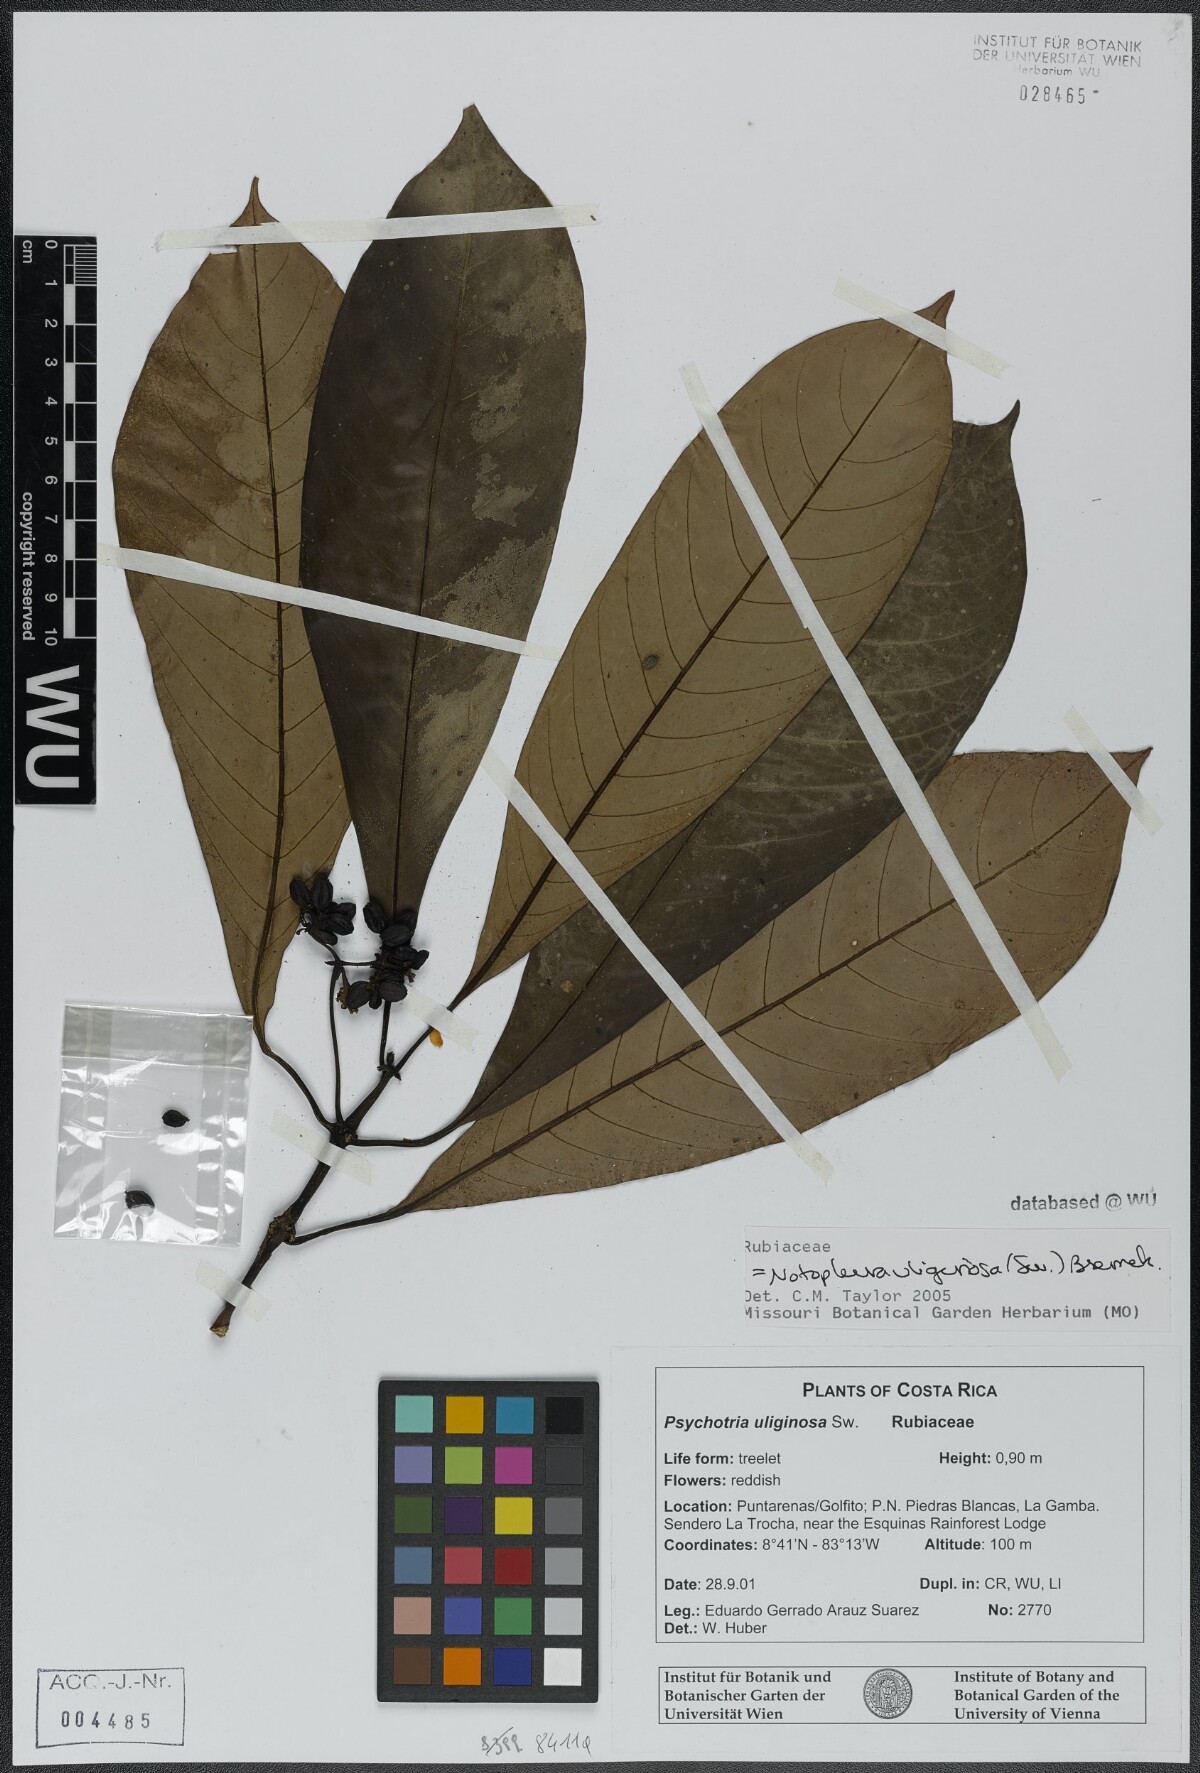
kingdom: Plantae
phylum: Tracheophyta
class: Magnoliopsida
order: Gentianales
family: Rubiaceae
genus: Notopleura
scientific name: Notopleura uliginosa
